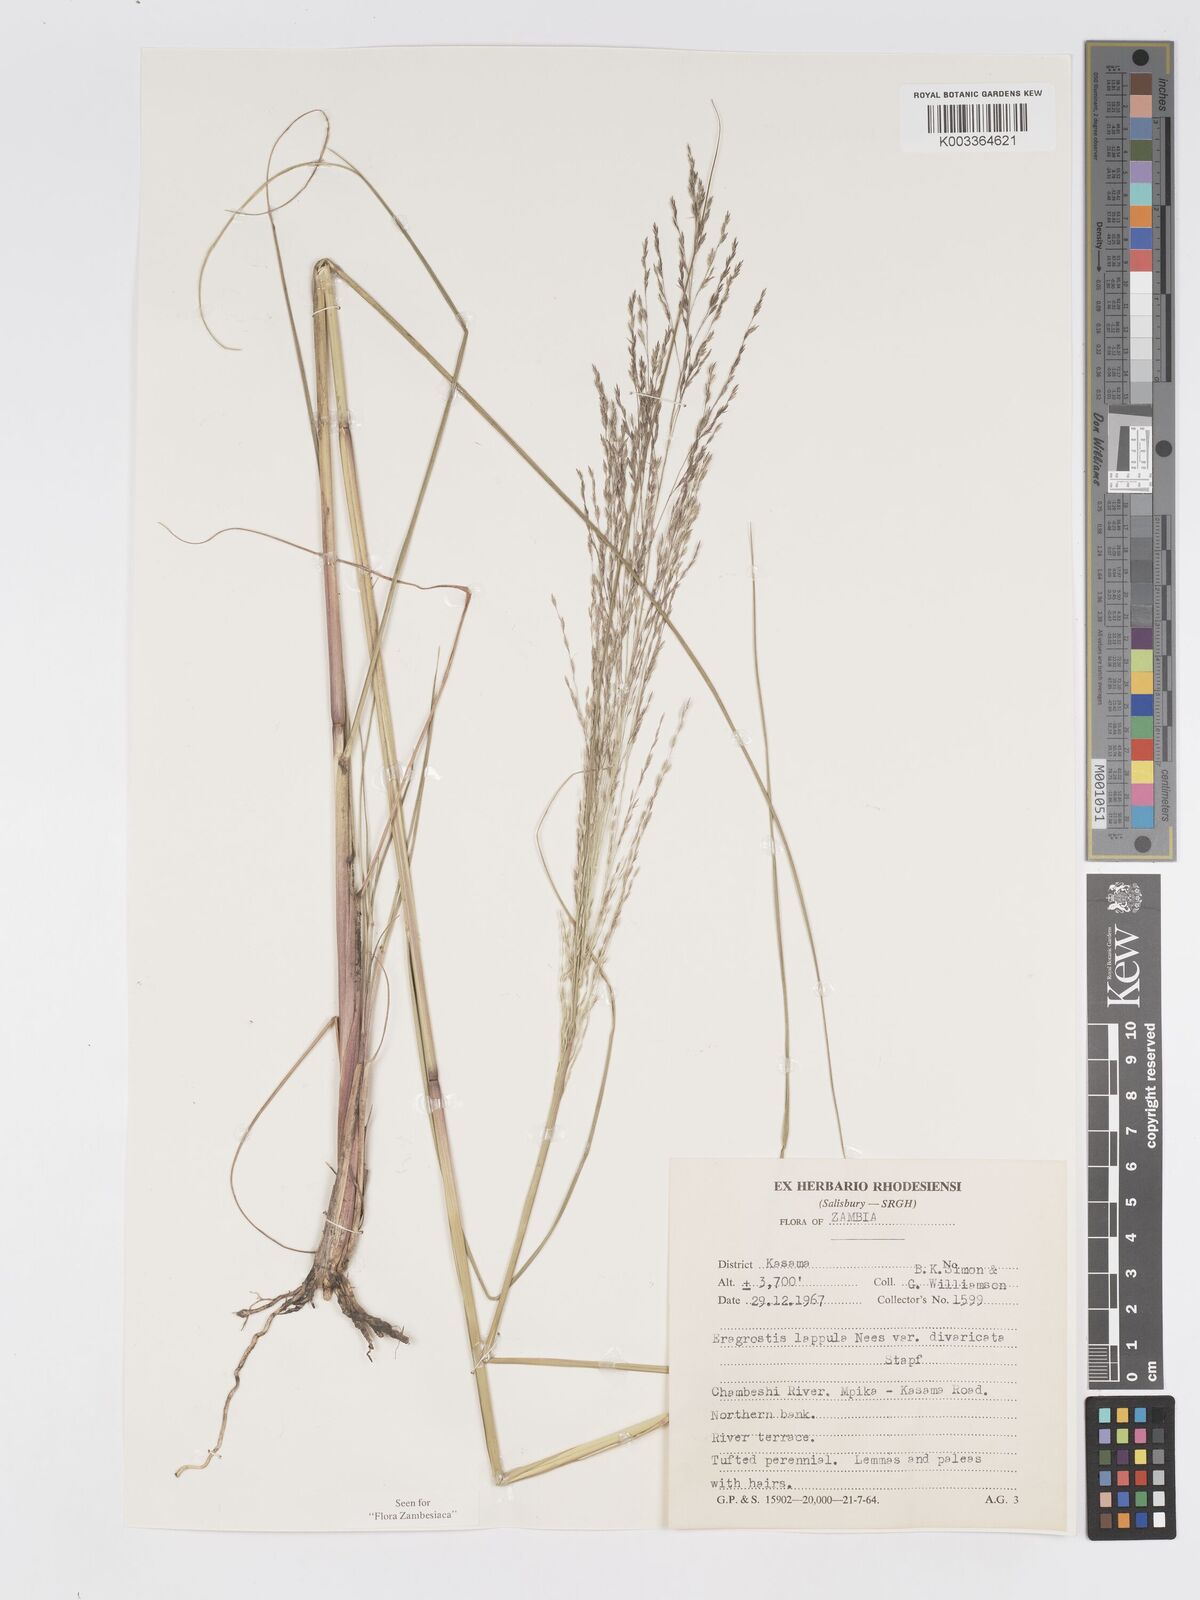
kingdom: Plantae
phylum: Tracheophyta
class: Liliopsida
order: Poales
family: Poaceae
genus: Eragrostis
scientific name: Eragrostis lappula
